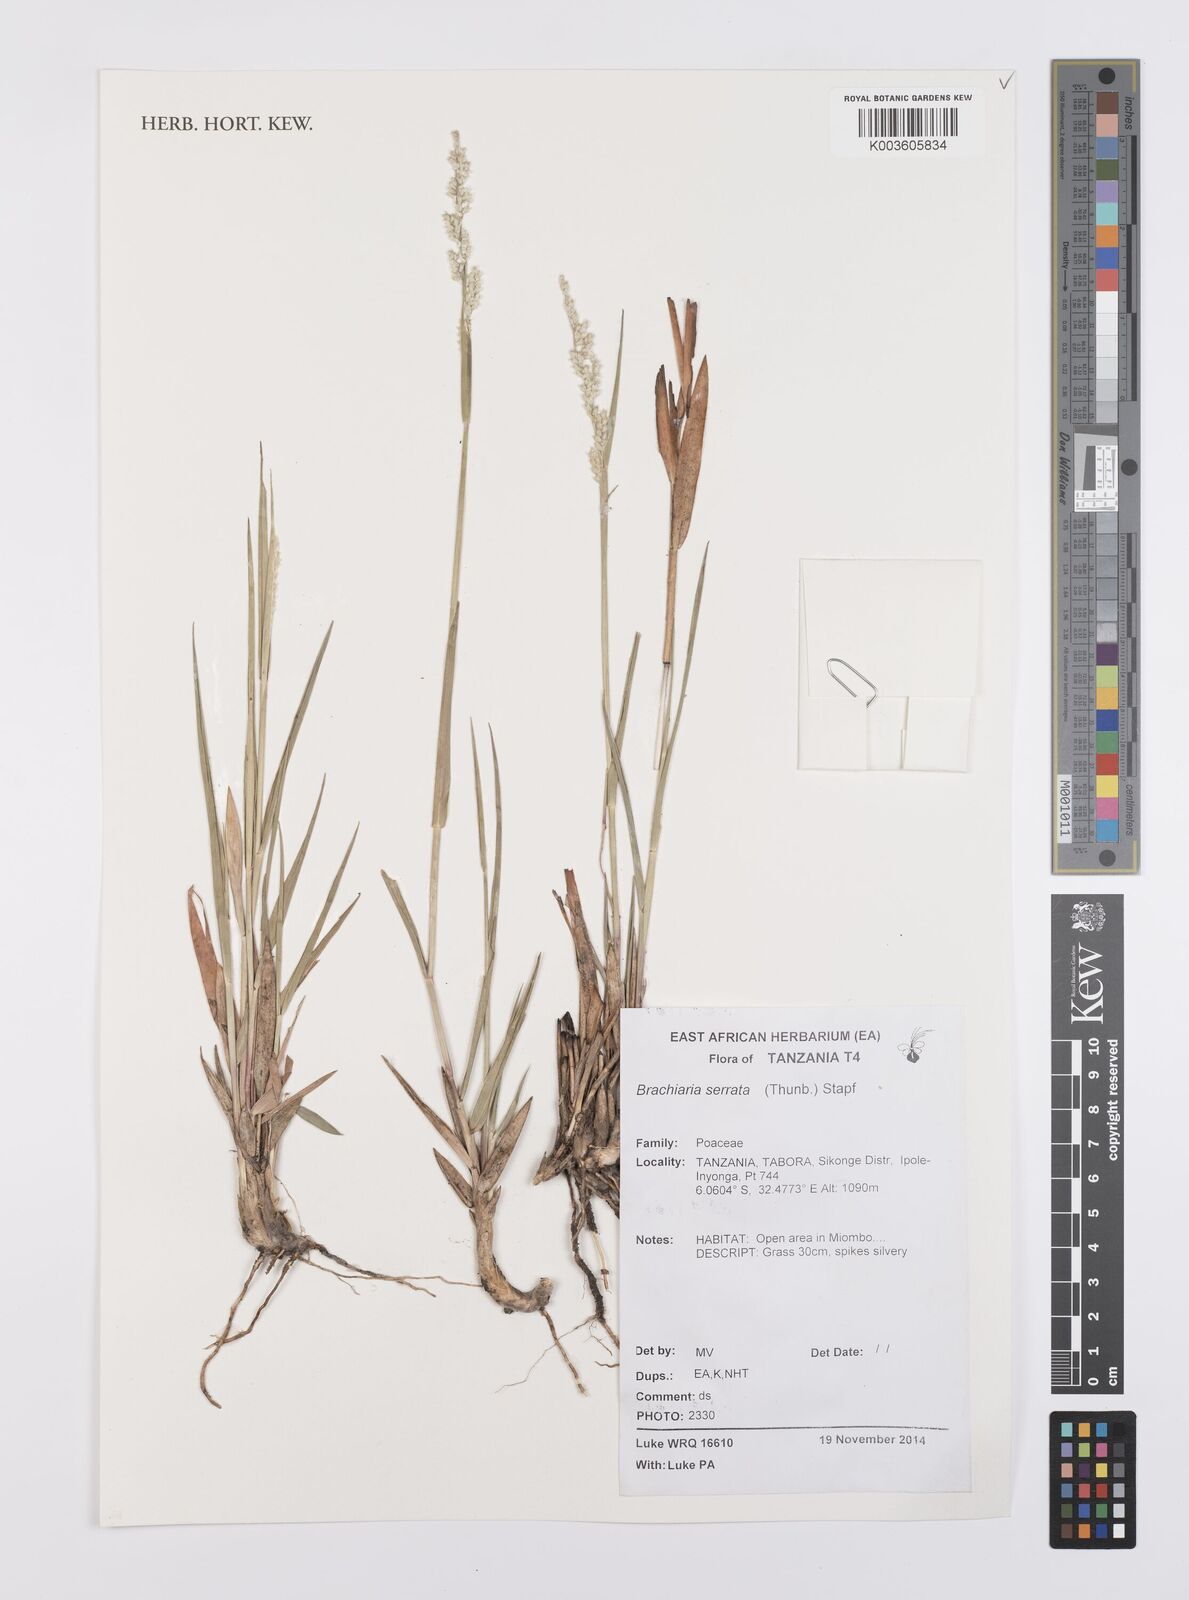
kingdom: Plantae
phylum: Tracheophyta
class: Liliopsida
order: Poales
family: Poaceae
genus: Urochloa
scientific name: Urochloa serrata
